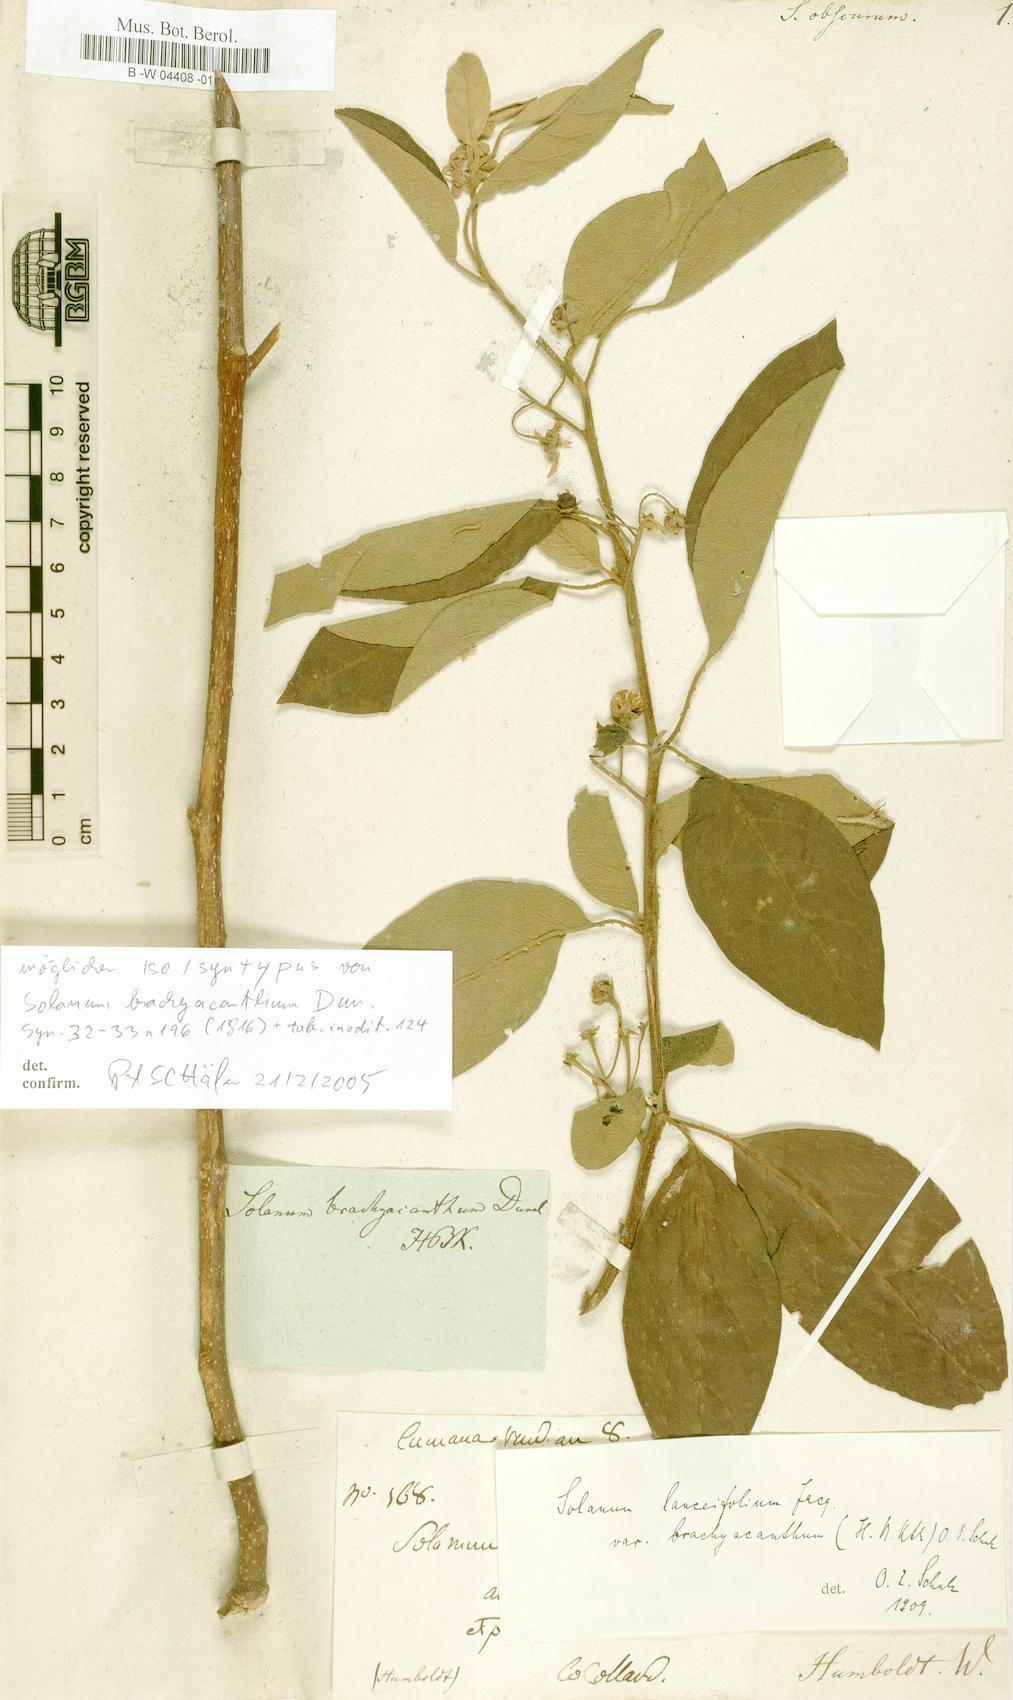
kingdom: Plantae
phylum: Tracheophyta
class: Magnoliopsida
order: Solanales
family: Solanaceae
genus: Solanum
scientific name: Solanum subinerme
